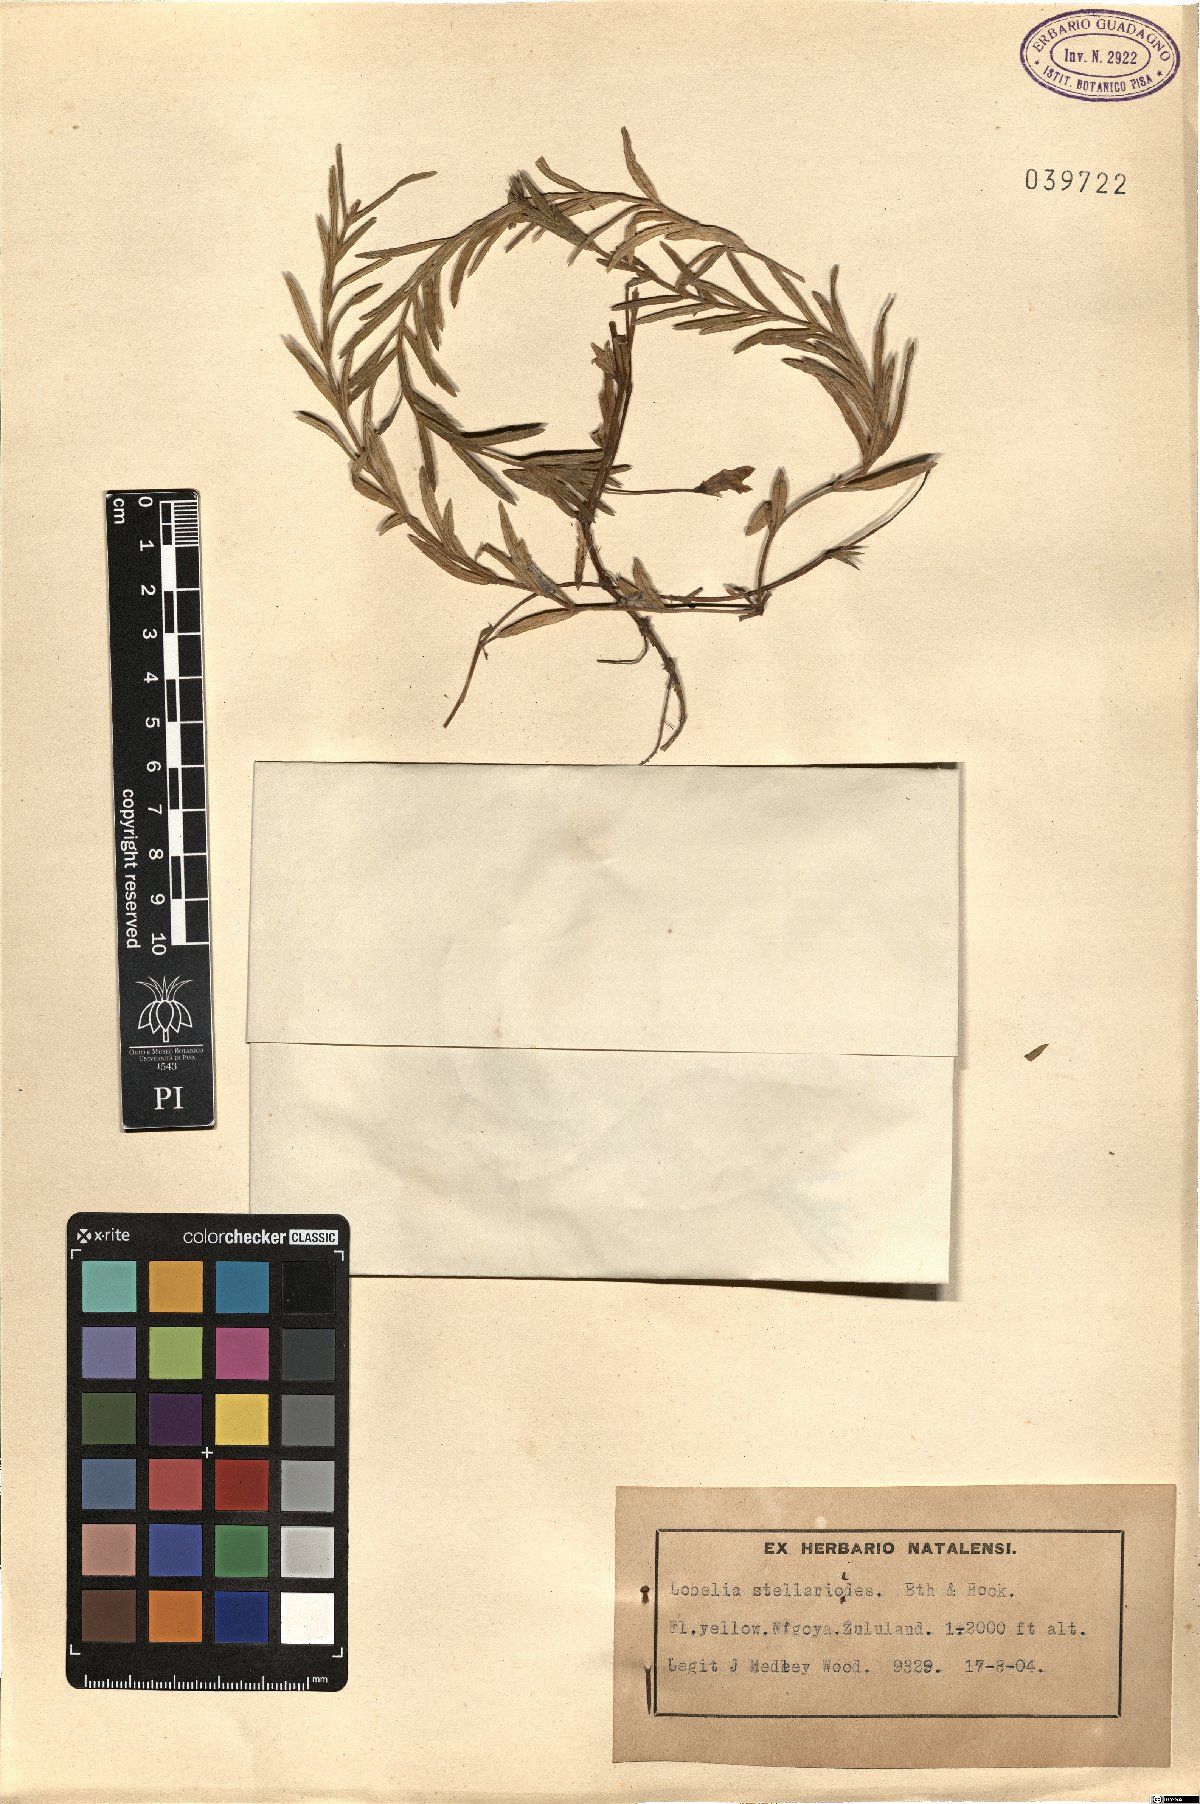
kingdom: Plantae
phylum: Tracheophyta
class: Magnoliopsida
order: Asterales
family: Campanulaceae
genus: Monopsis
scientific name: Monopsis stellarioides
